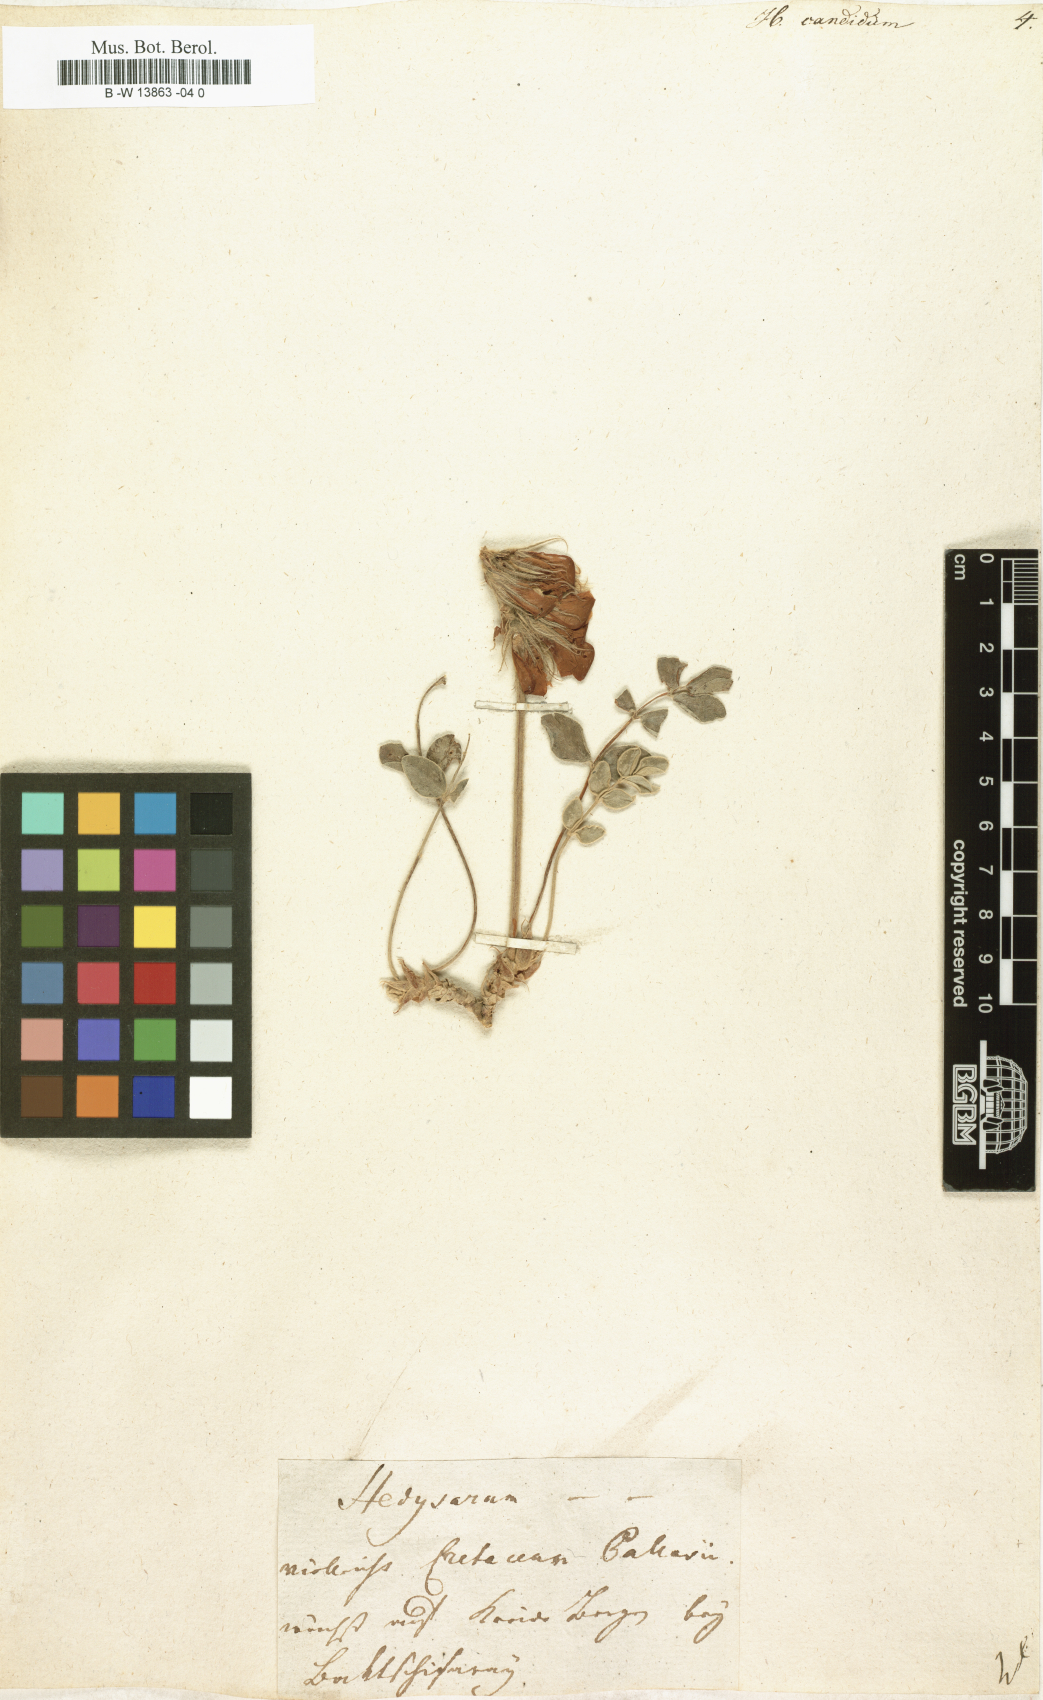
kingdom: Plantae
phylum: Tracheophyta
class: Magnoliopsida
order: Fabales
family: Fabaceae
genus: Hedysarum
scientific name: Hedysarum candidum
